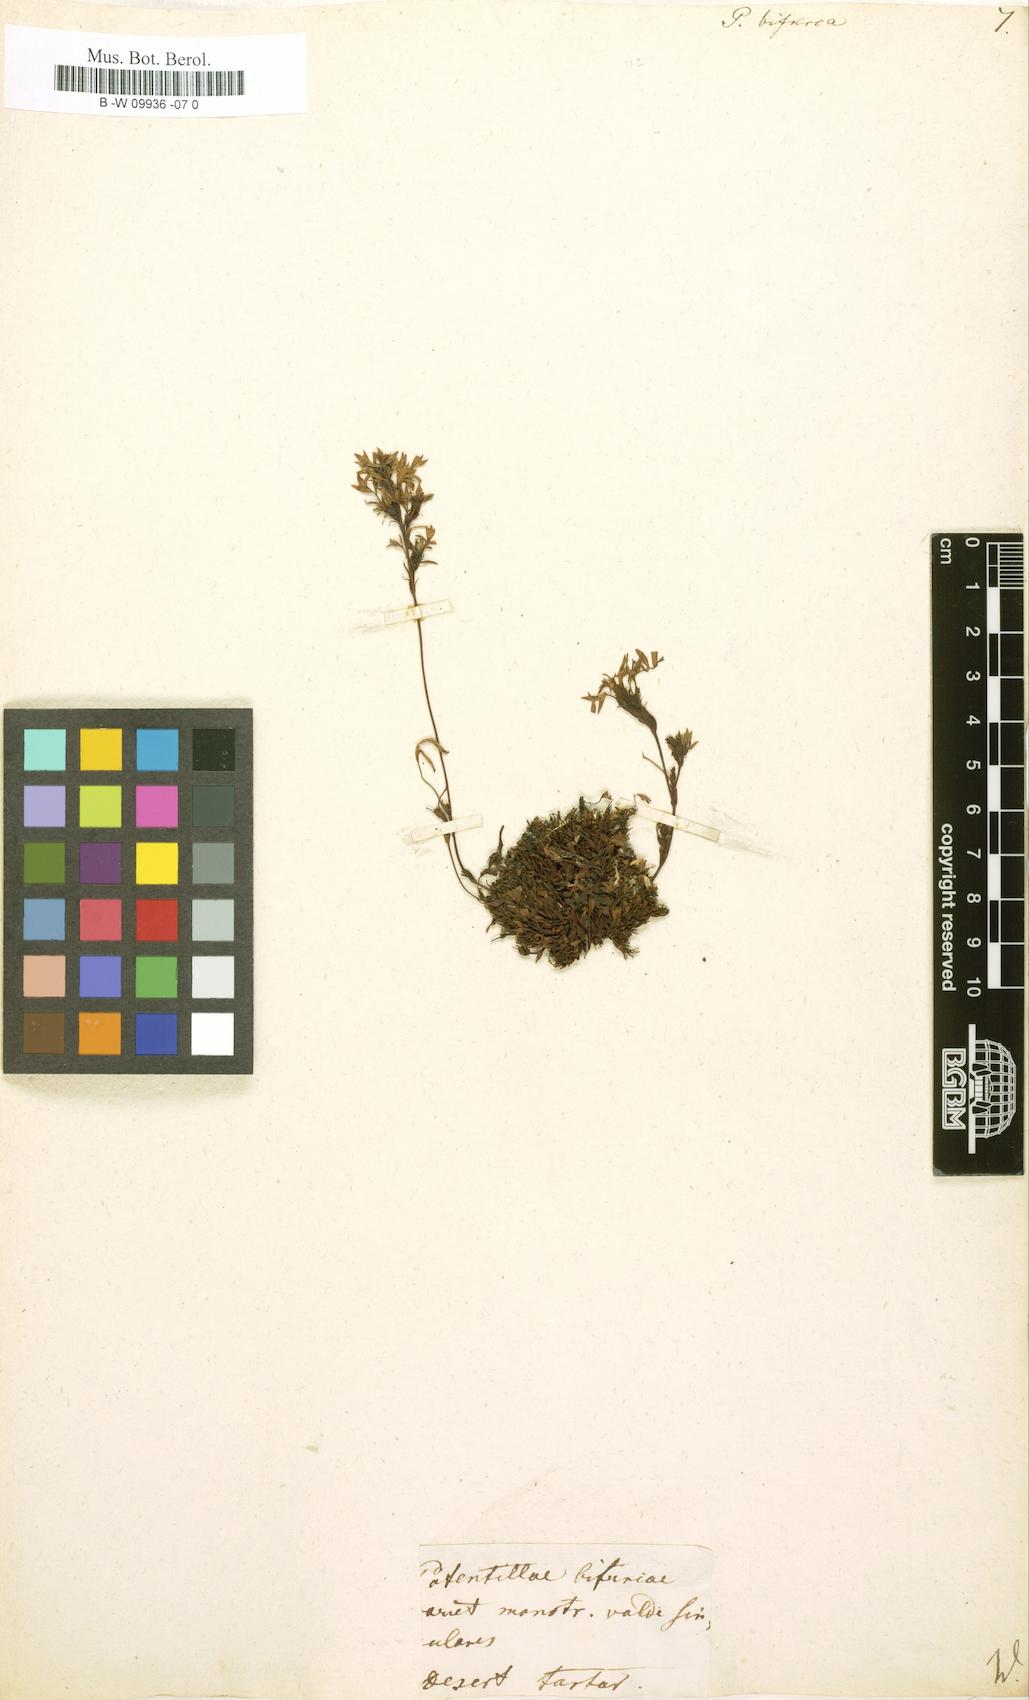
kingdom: Plantae
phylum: Tracheophyta
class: Magnoliopsida
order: Rosales
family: Rosaceae
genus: Sibbaldianthe
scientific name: Sibbaldianthe bifurca
